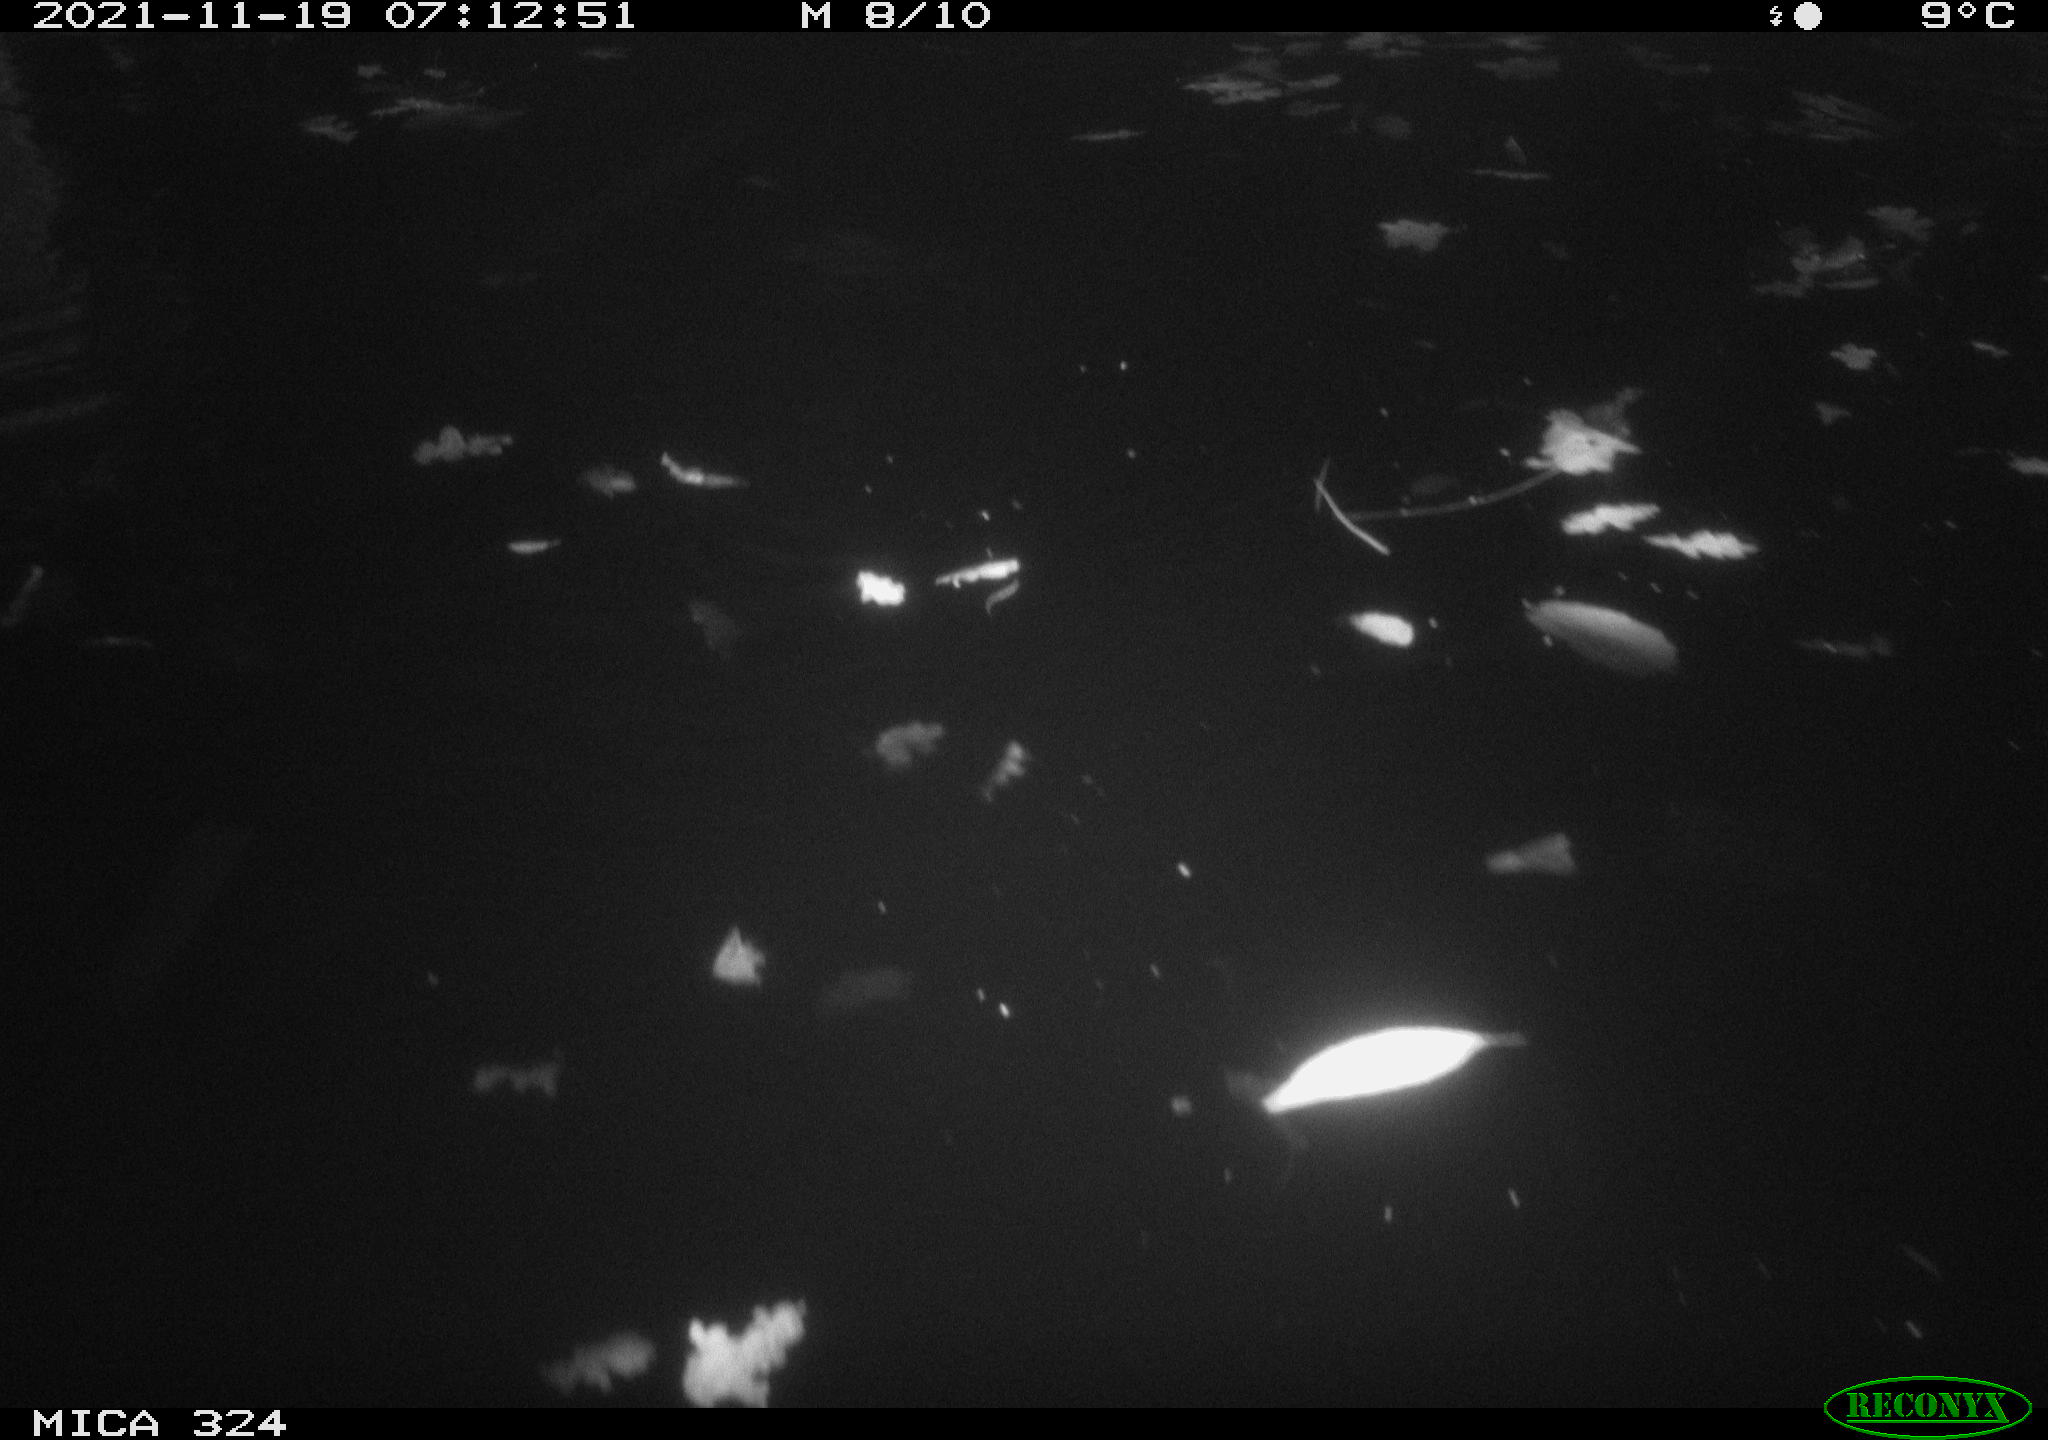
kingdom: Animalia
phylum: Chordata
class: Mammalia
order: Rodentia
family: Cricetidae
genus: Ondatra
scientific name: Ondatra zibethicus
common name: Muskrat
